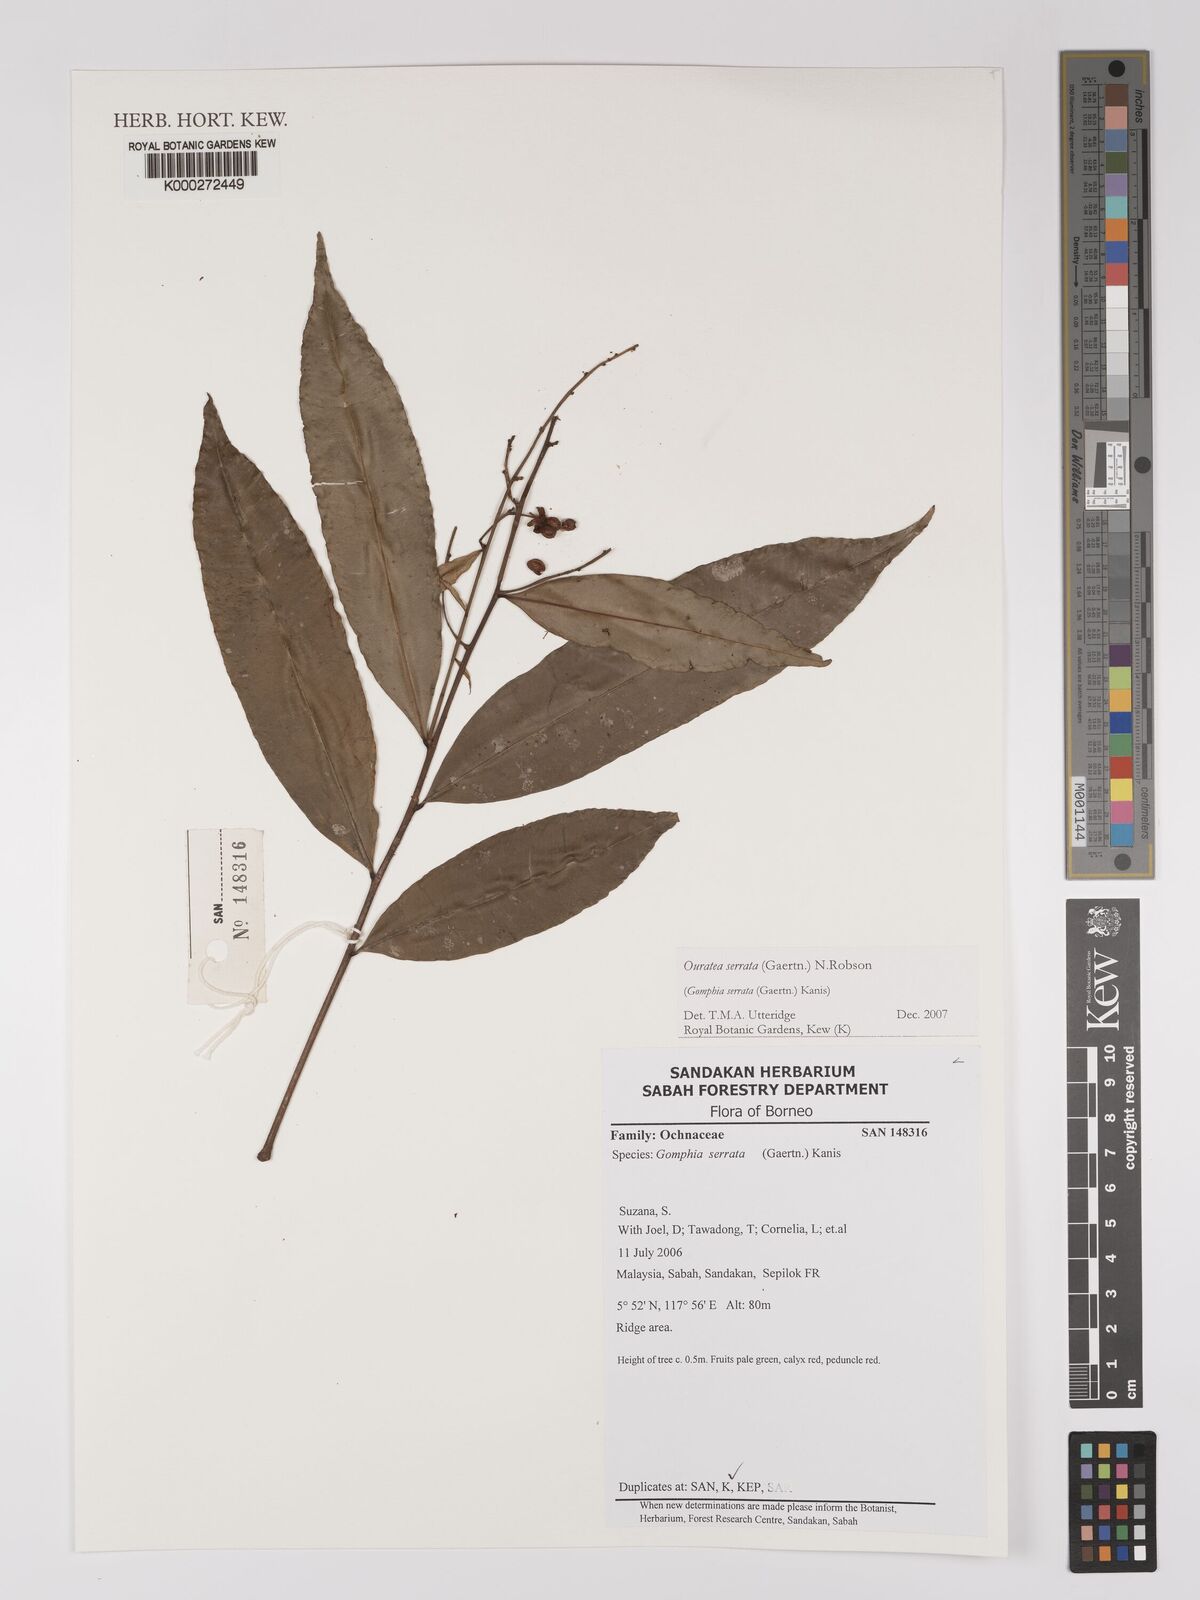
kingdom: Plantae
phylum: Tracheophyta
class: Magnoliopsida
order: Malpighiales
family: Ochnaceae
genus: Gomphia
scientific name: Gomphia serrata
